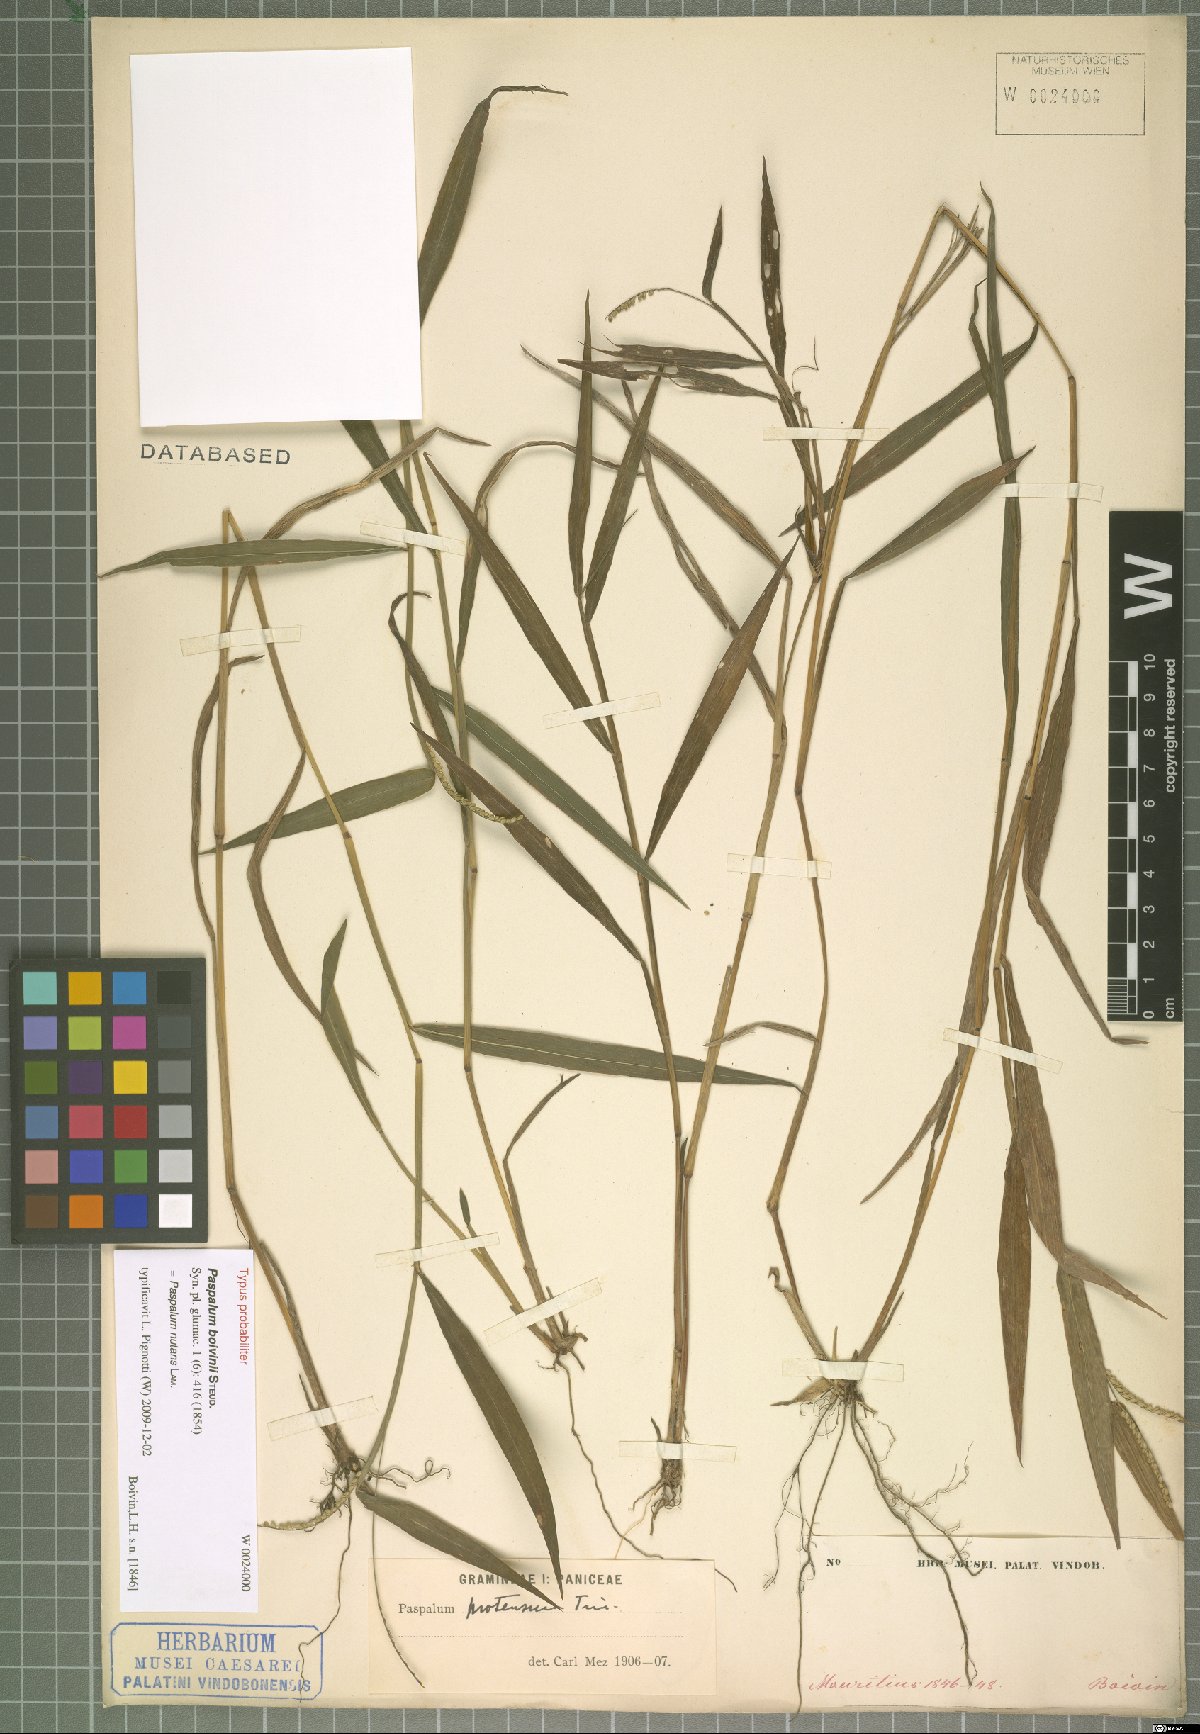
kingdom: Plantae
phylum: Tracheophyta
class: Liliopsida
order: Poales
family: Poaceae
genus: Paspalum
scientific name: Paspalum nutans
